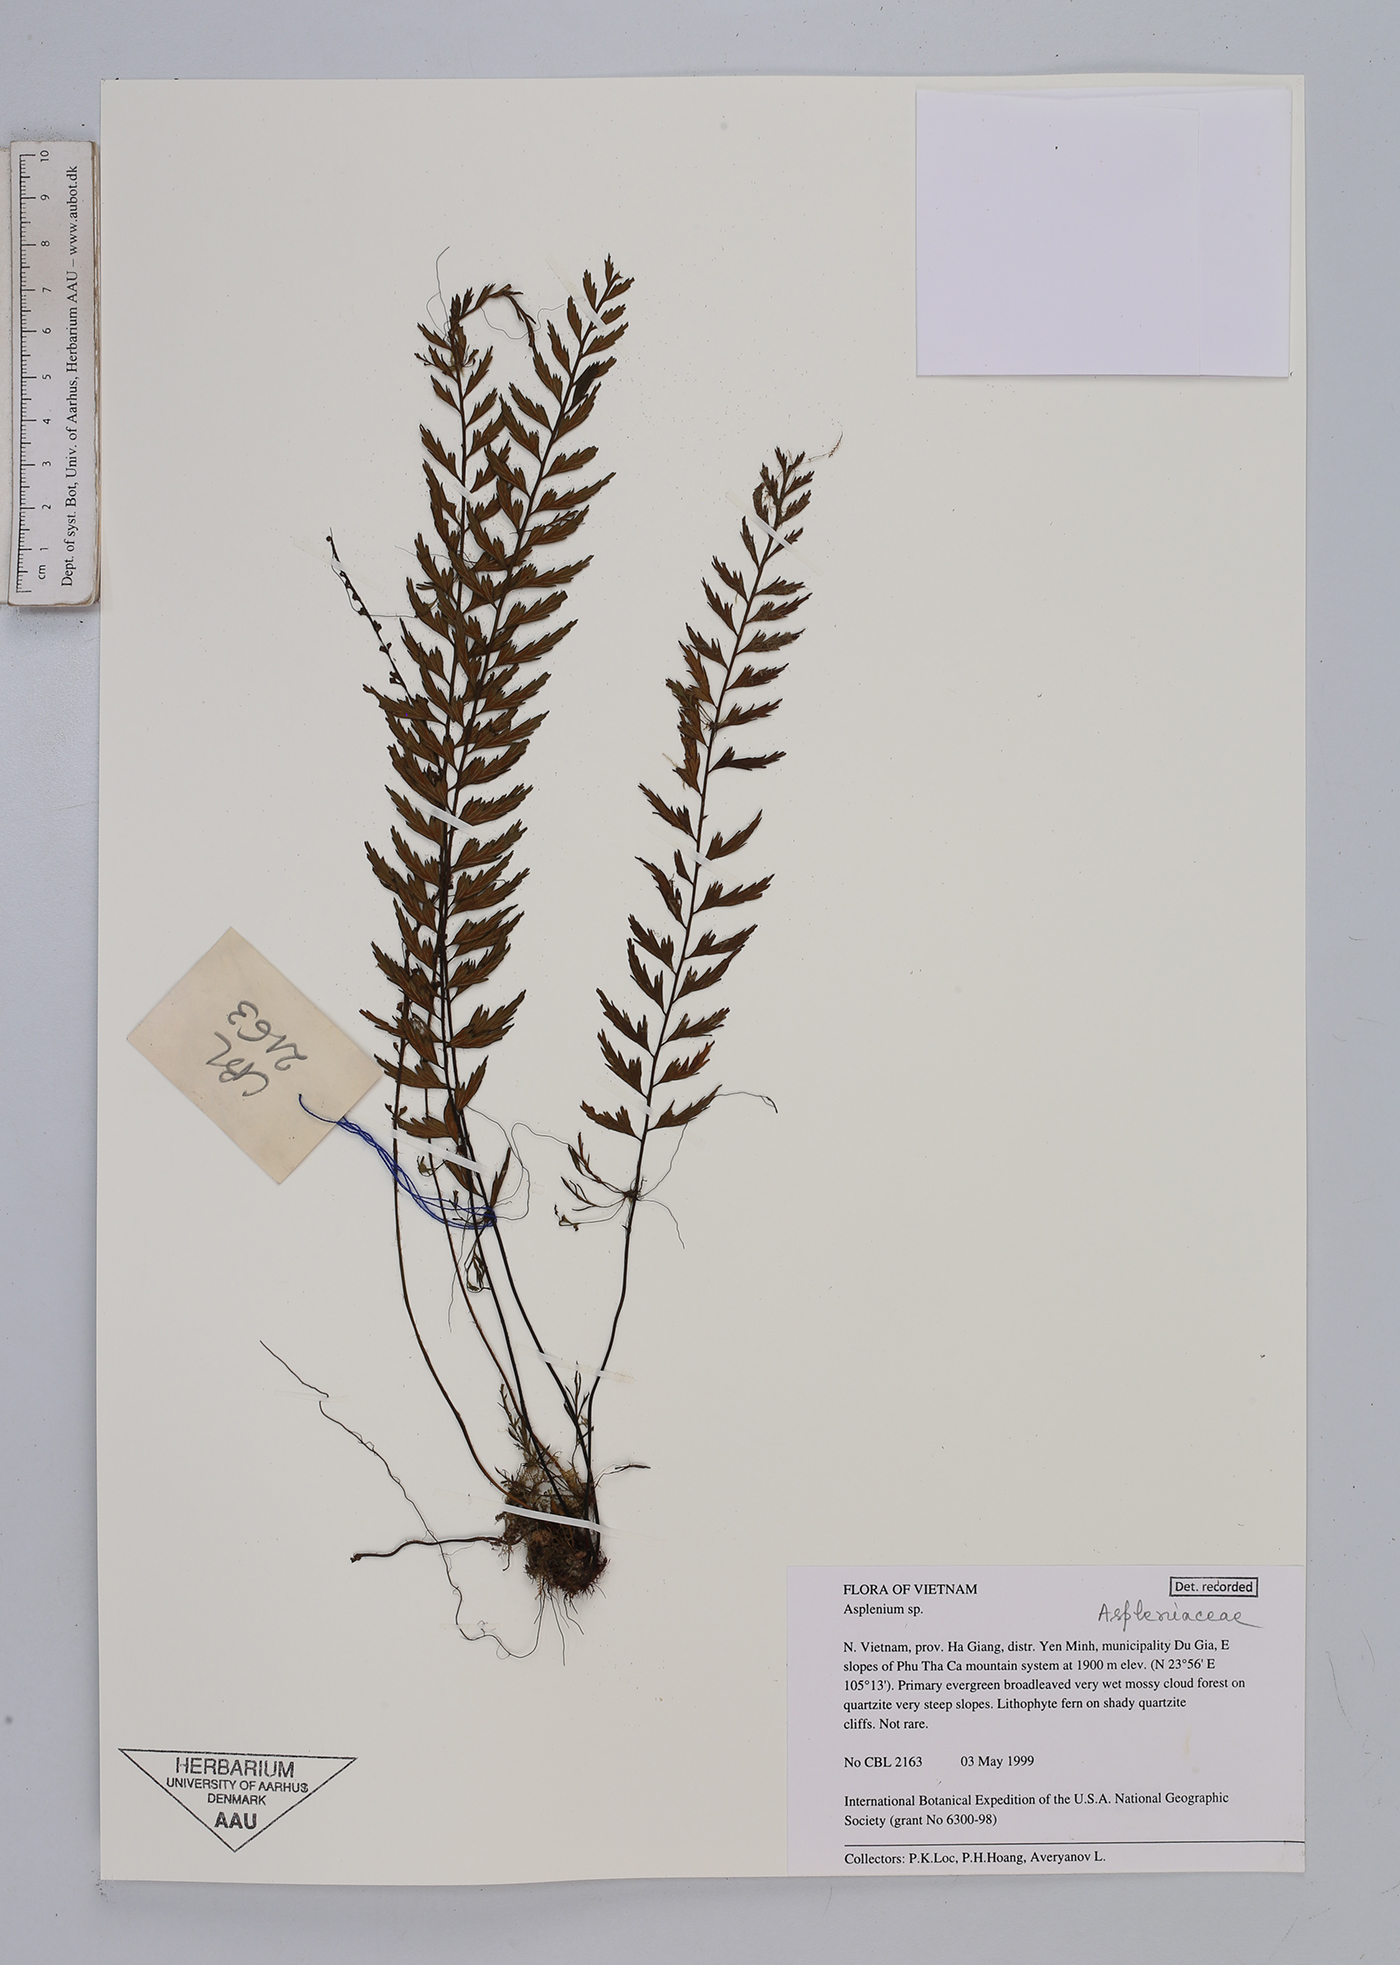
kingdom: Plantae
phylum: Tracheophyta
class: Polypodiopsida
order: Polypodiales
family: Aspleniaceae
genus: Asplenium
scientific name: Asplenium
